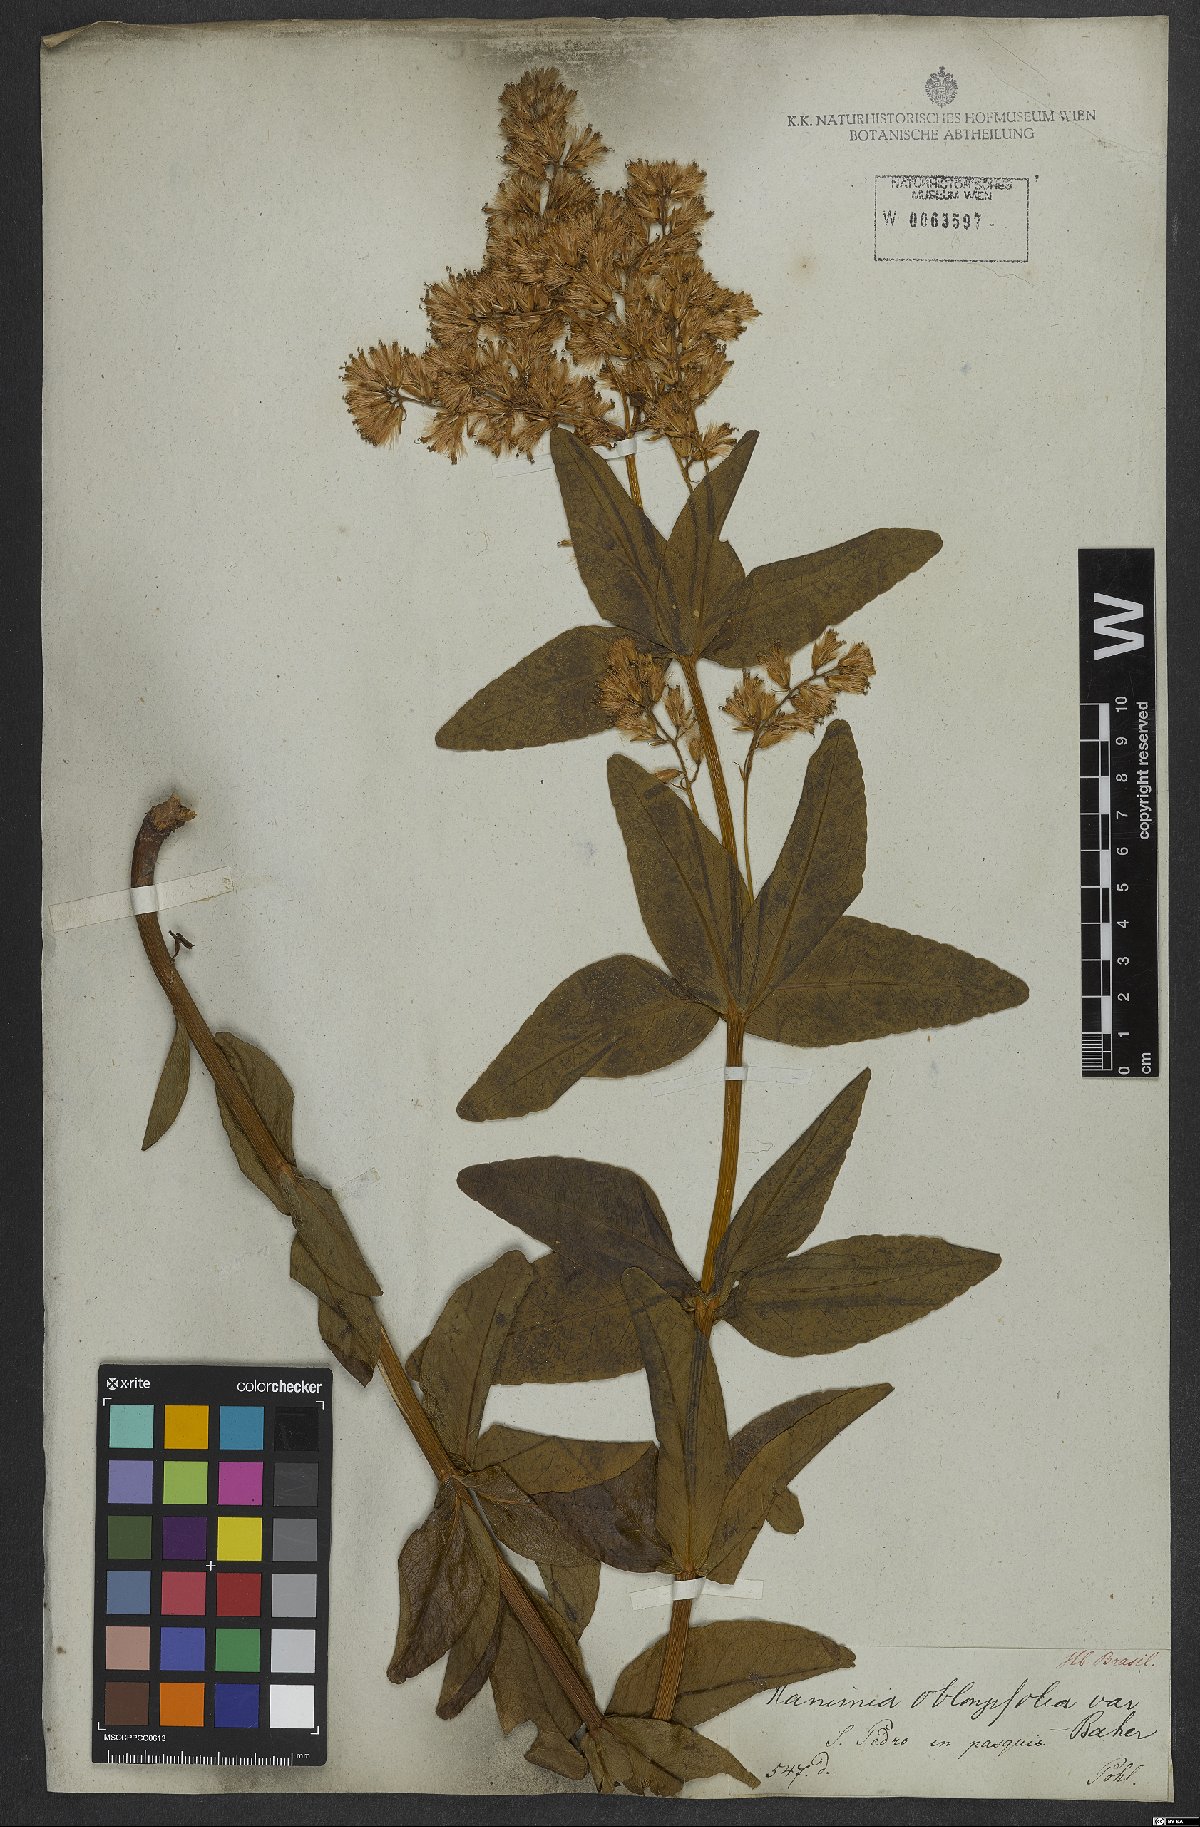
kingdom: Plantae
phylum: Tracheophyta
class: Magnoliopsida
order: Asterales
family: Asteraceae
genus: Mikania
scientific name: Mikania oblongifolia
